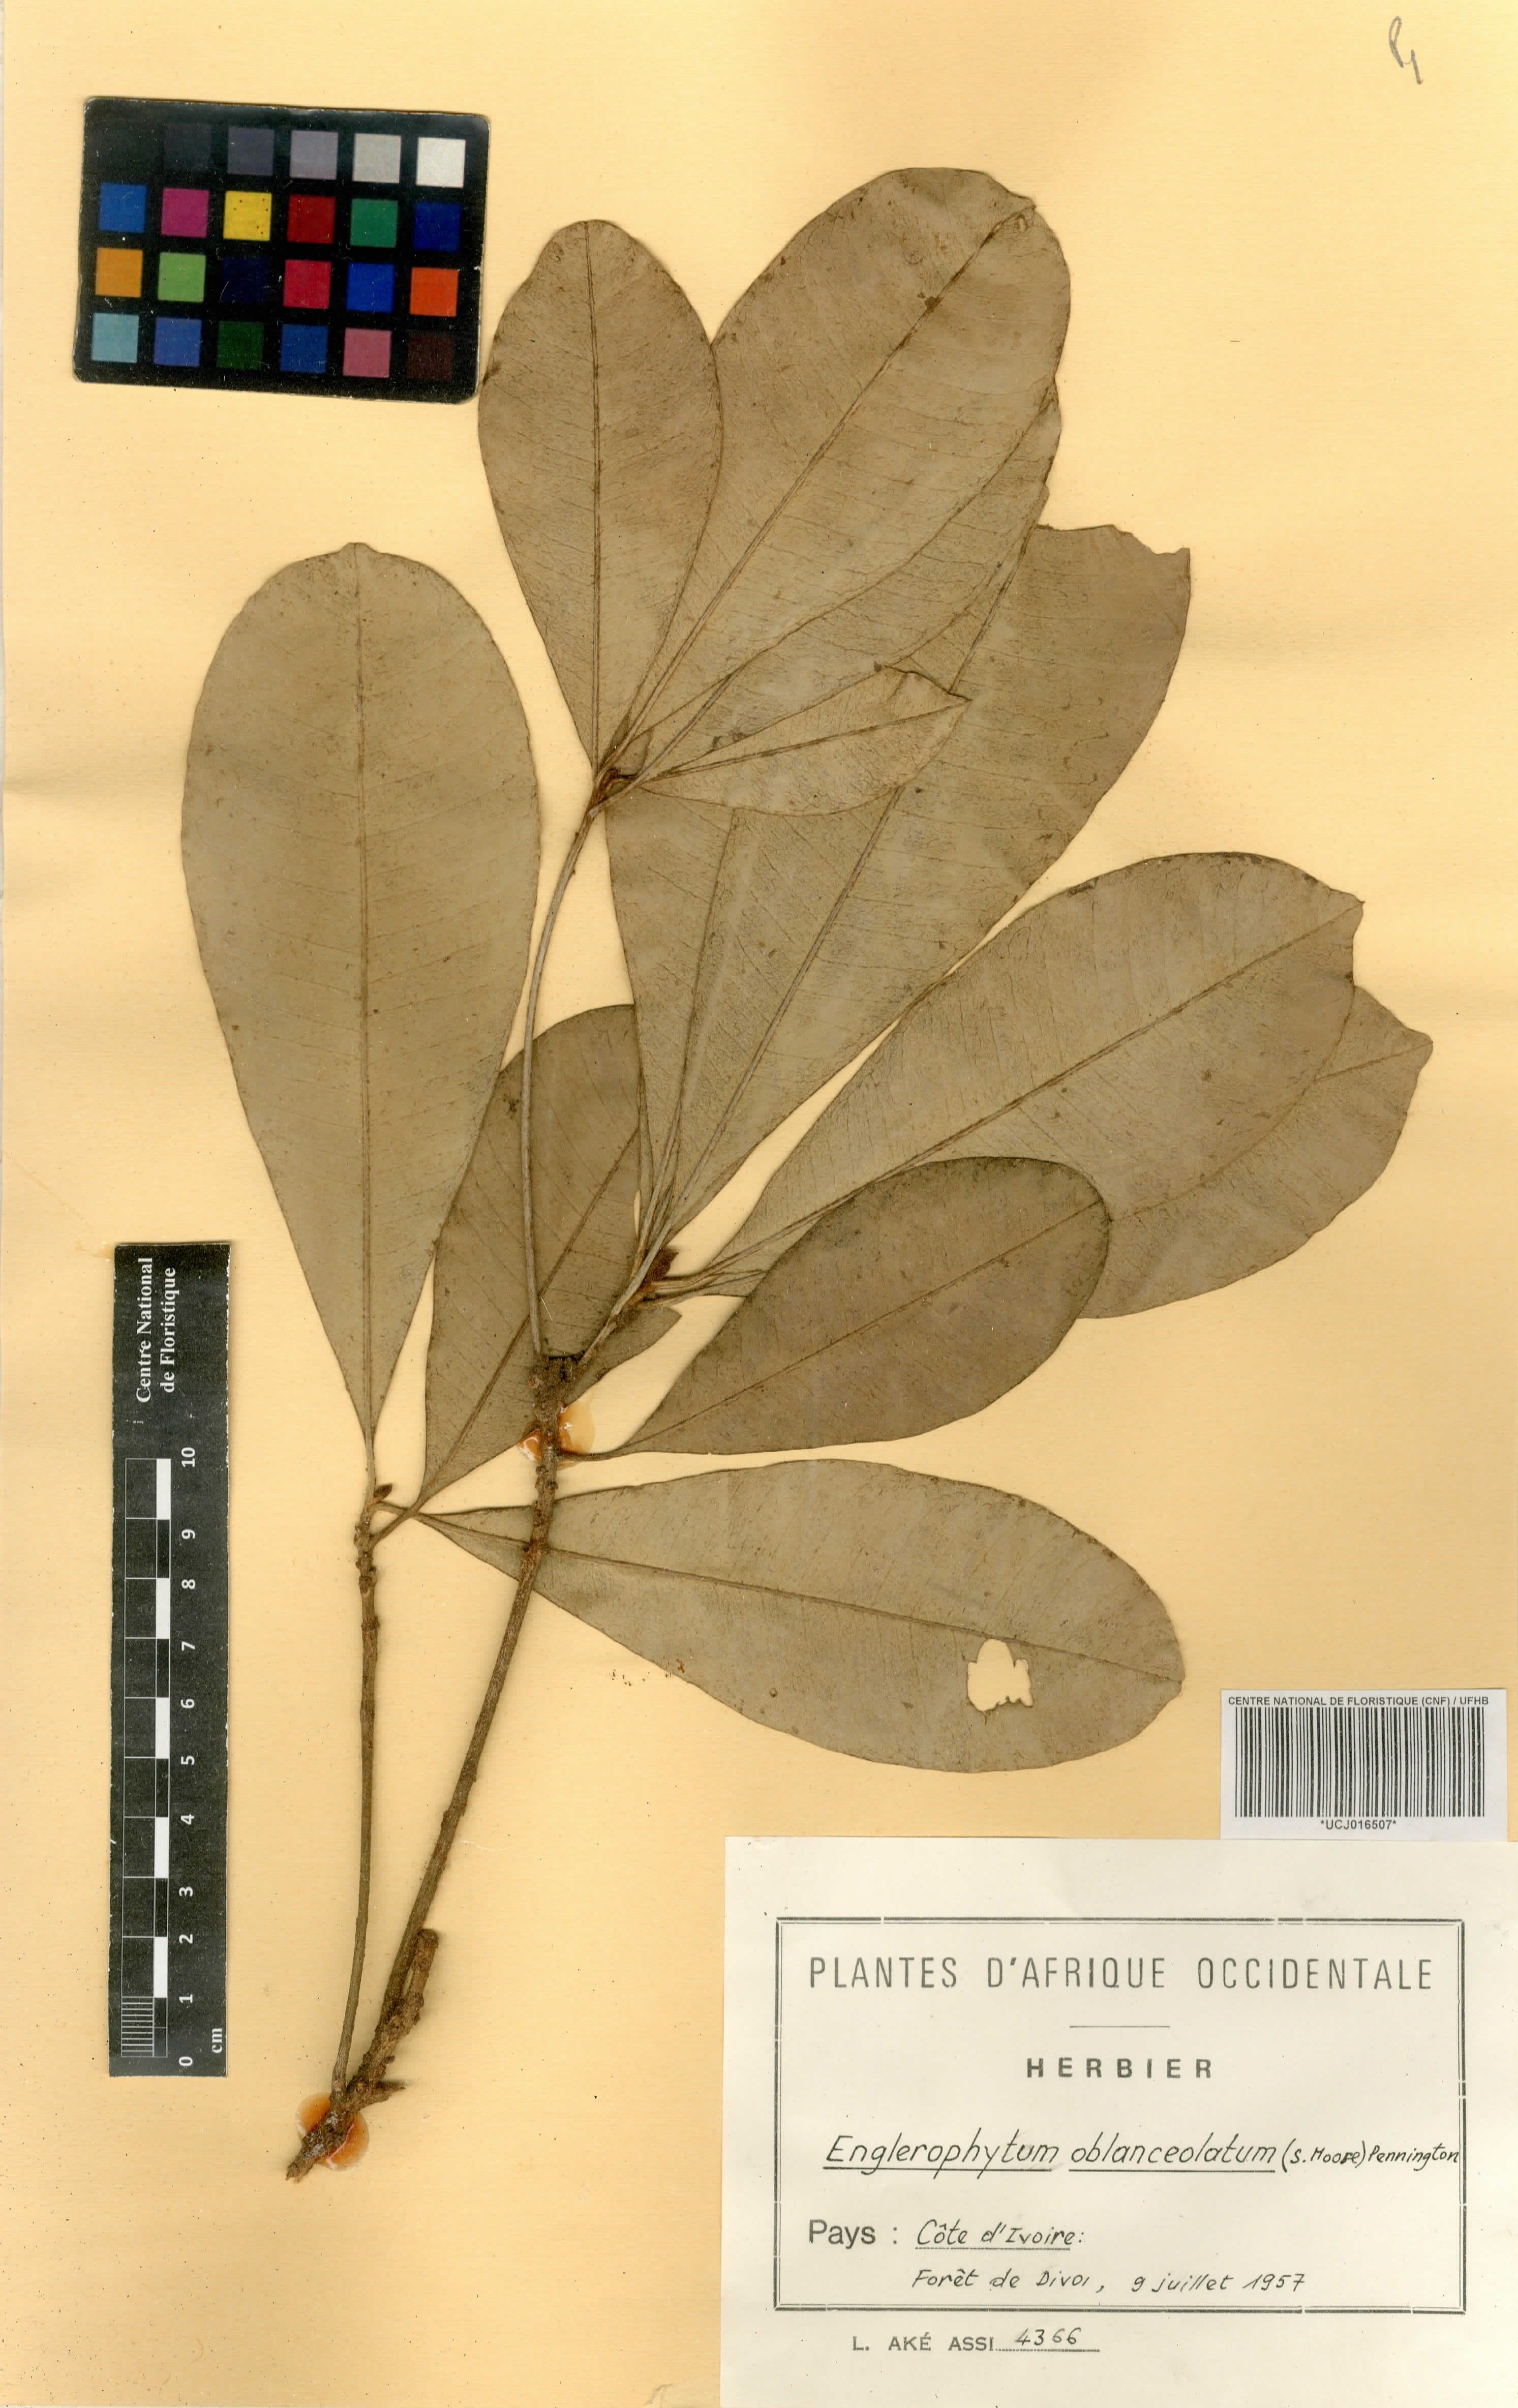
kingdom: Plantae
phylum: Tracheophyta
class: Magnoliopsida
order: Ericales
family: Sapotaceae
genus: Englerophytum
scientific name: Englerophytum oblanceolatum
